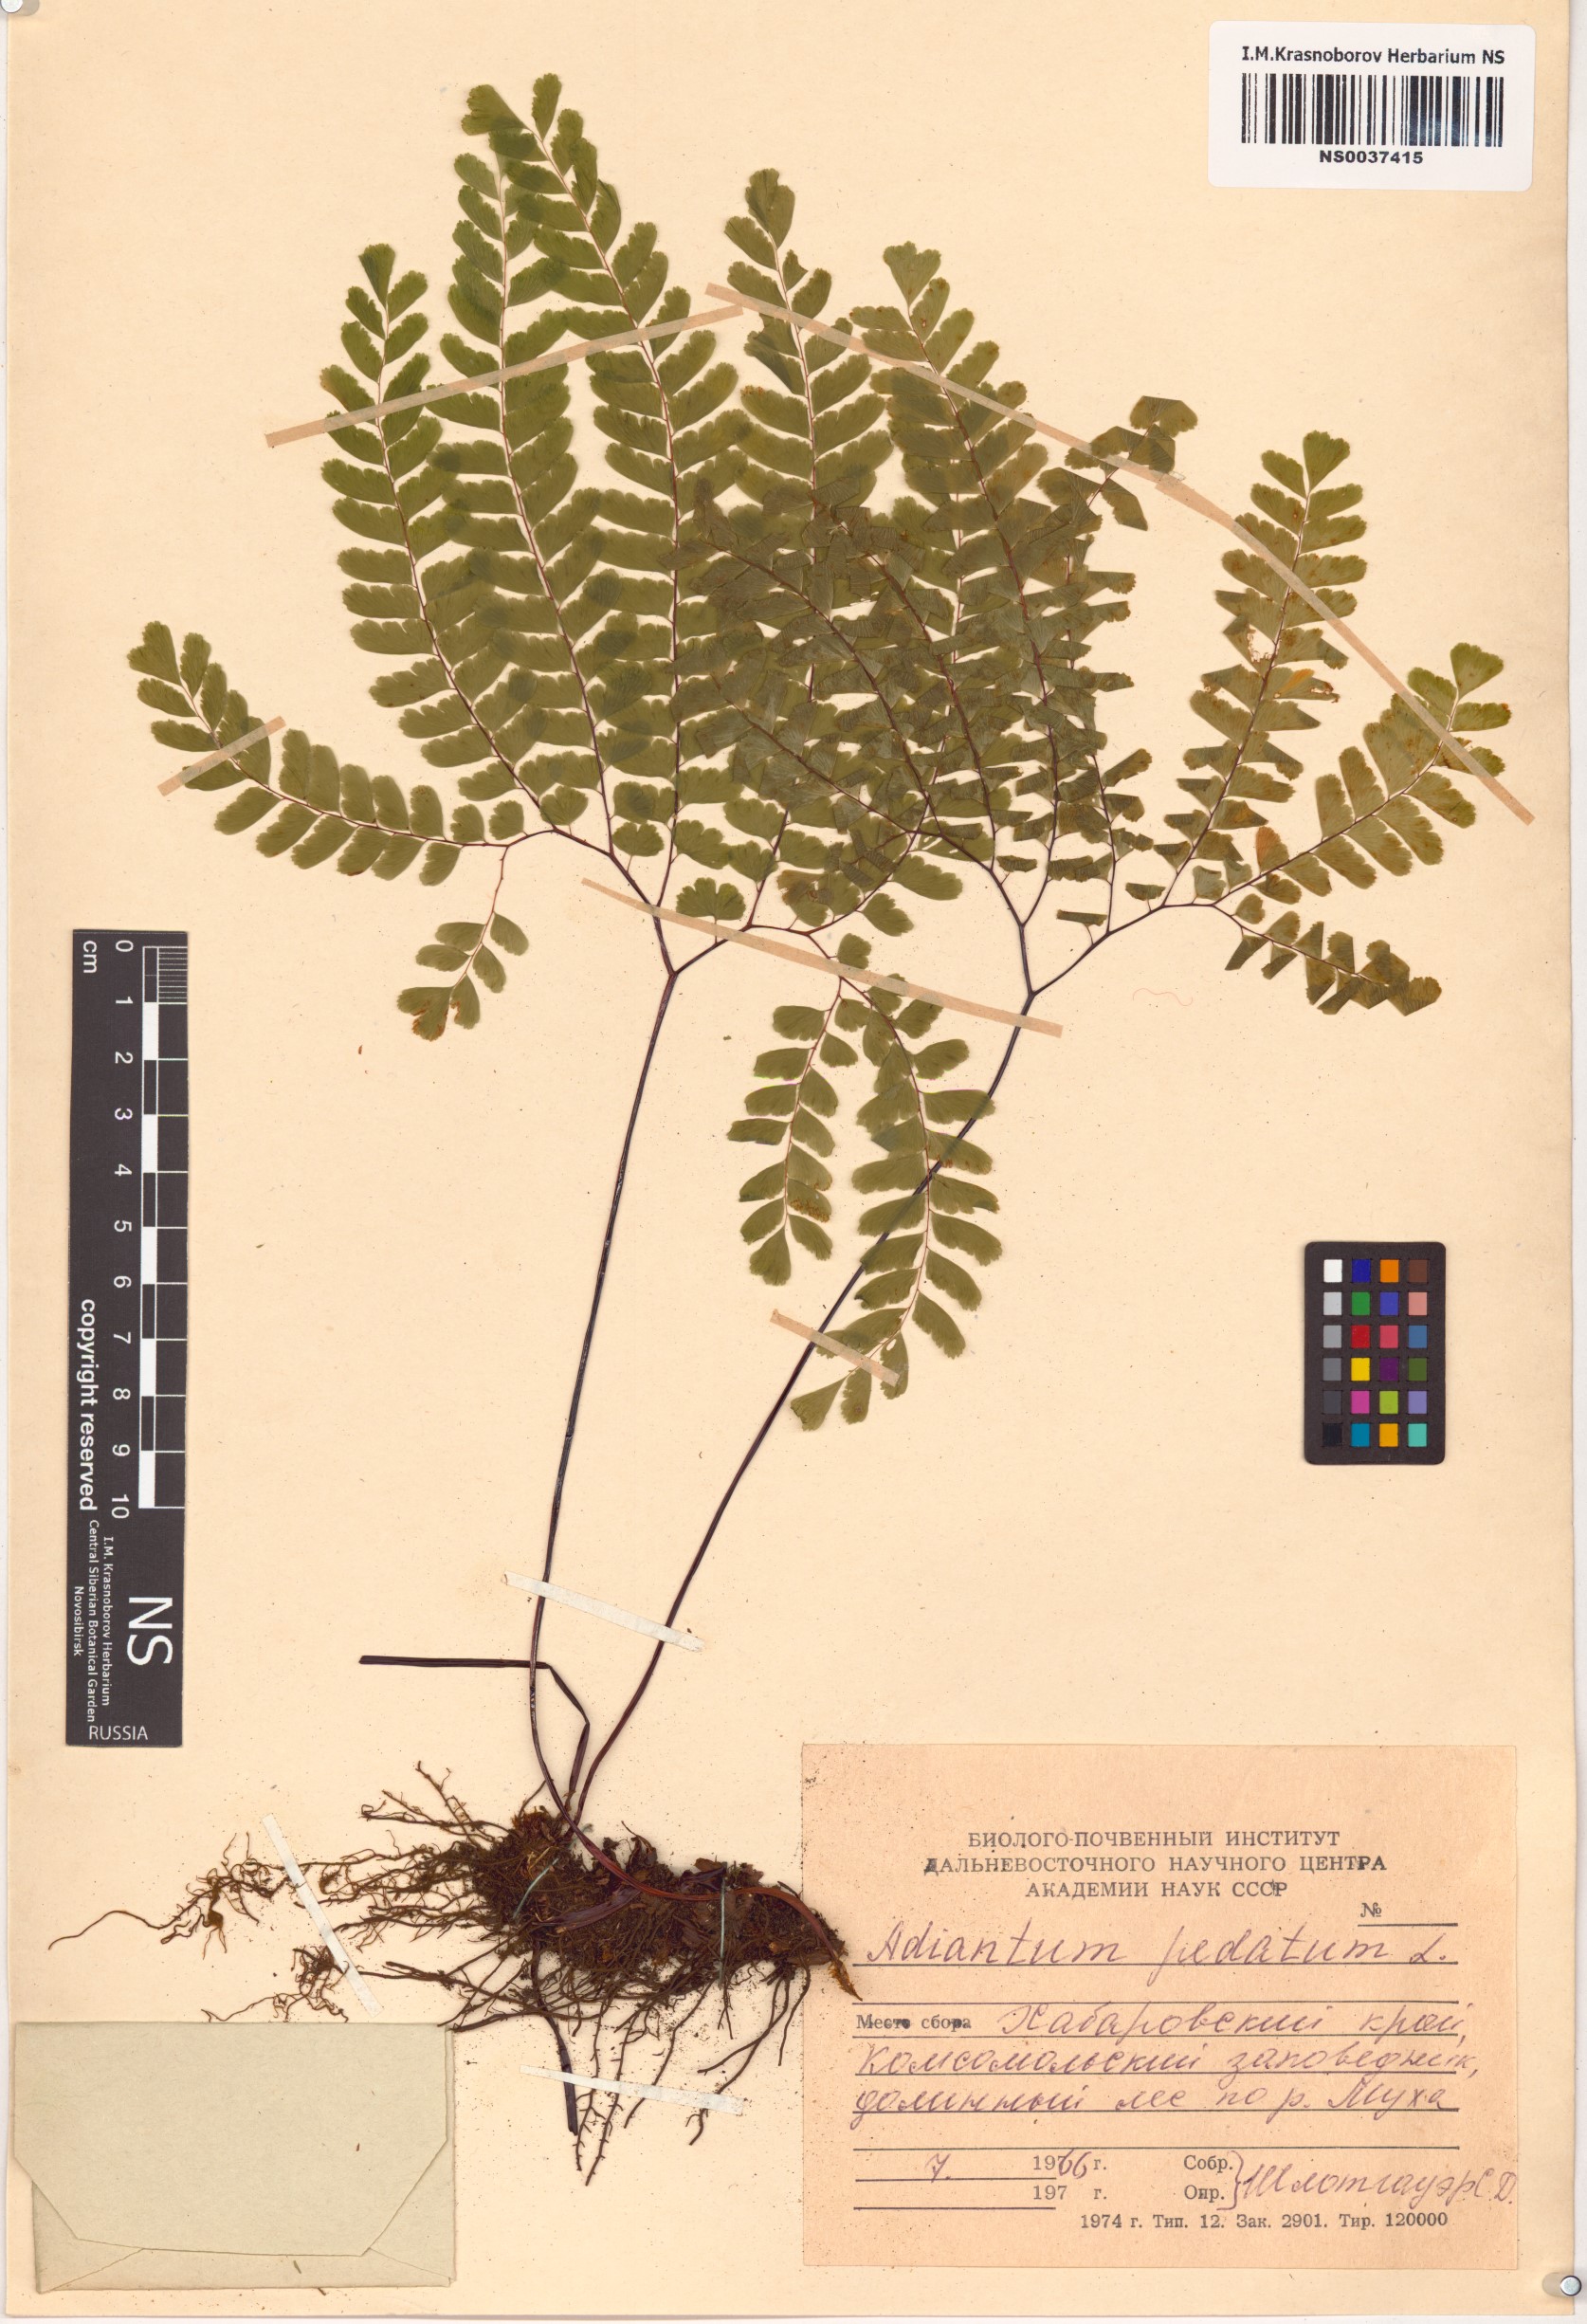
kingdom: Plantae
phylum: Tracheophyta
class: Polypodiopsida
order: Polypodiales
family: Pteridaceae
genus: Adiantum
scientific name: Adiantum pedatum
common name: Five-finger fern
